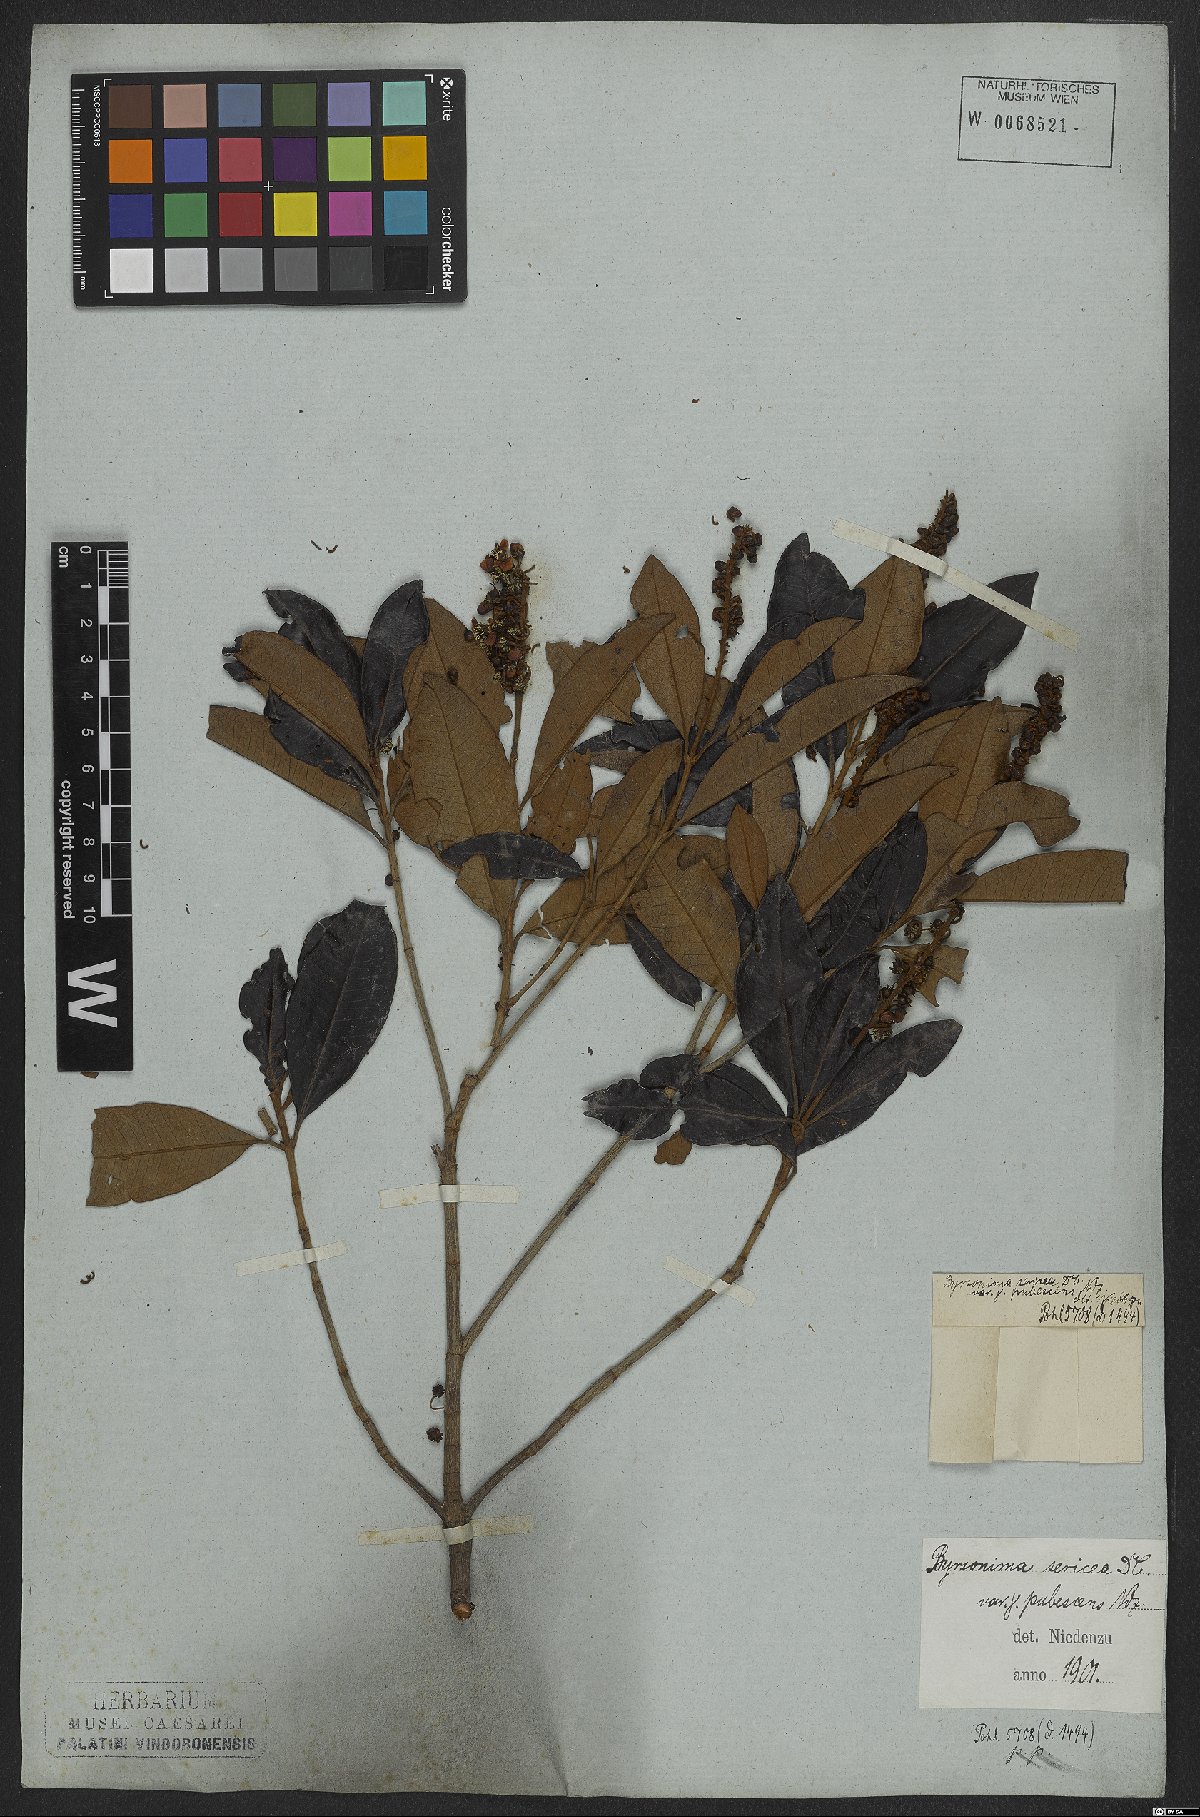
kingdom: Plantae
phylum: Tracheophyta
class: Magnoliopsida
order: Malpighiales
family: Malpighiaceae
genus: Byrsonima
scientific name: Byrsonima sericea
